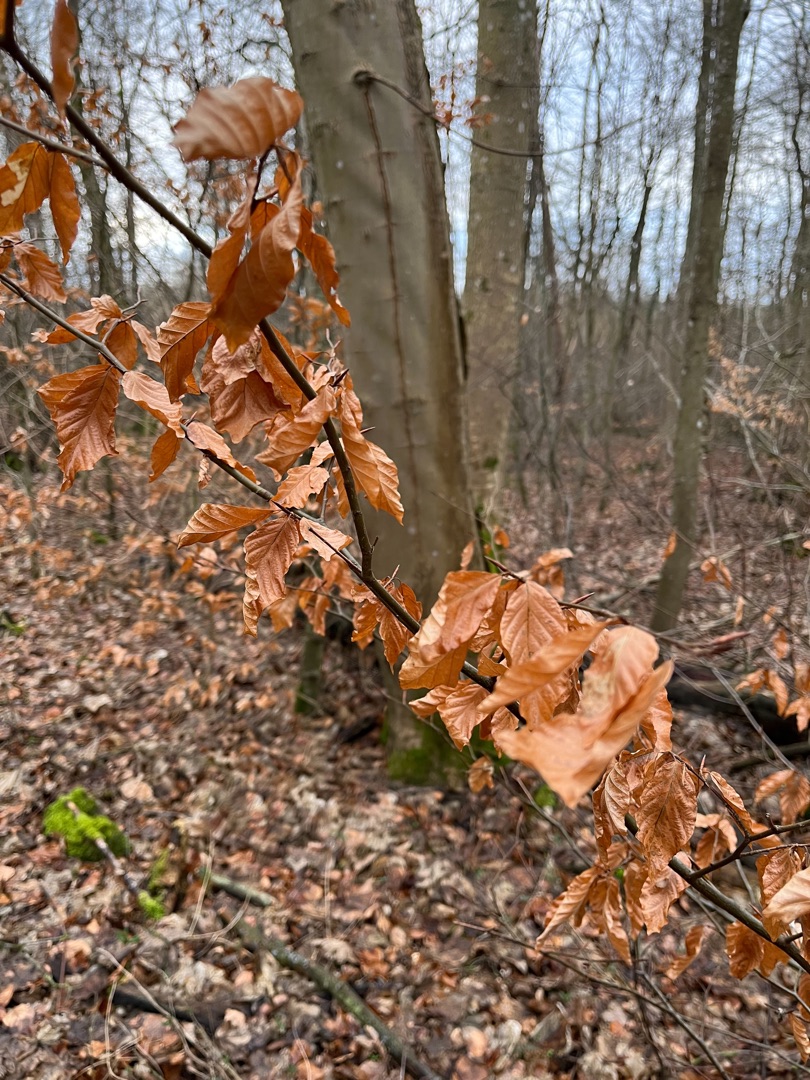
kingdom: Plantae
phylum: Tracheophyta
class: Magnoliopsida
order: Fagales
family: Fagaceae
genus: Fagus
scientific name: Fagus sylvatica
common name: Bøg
